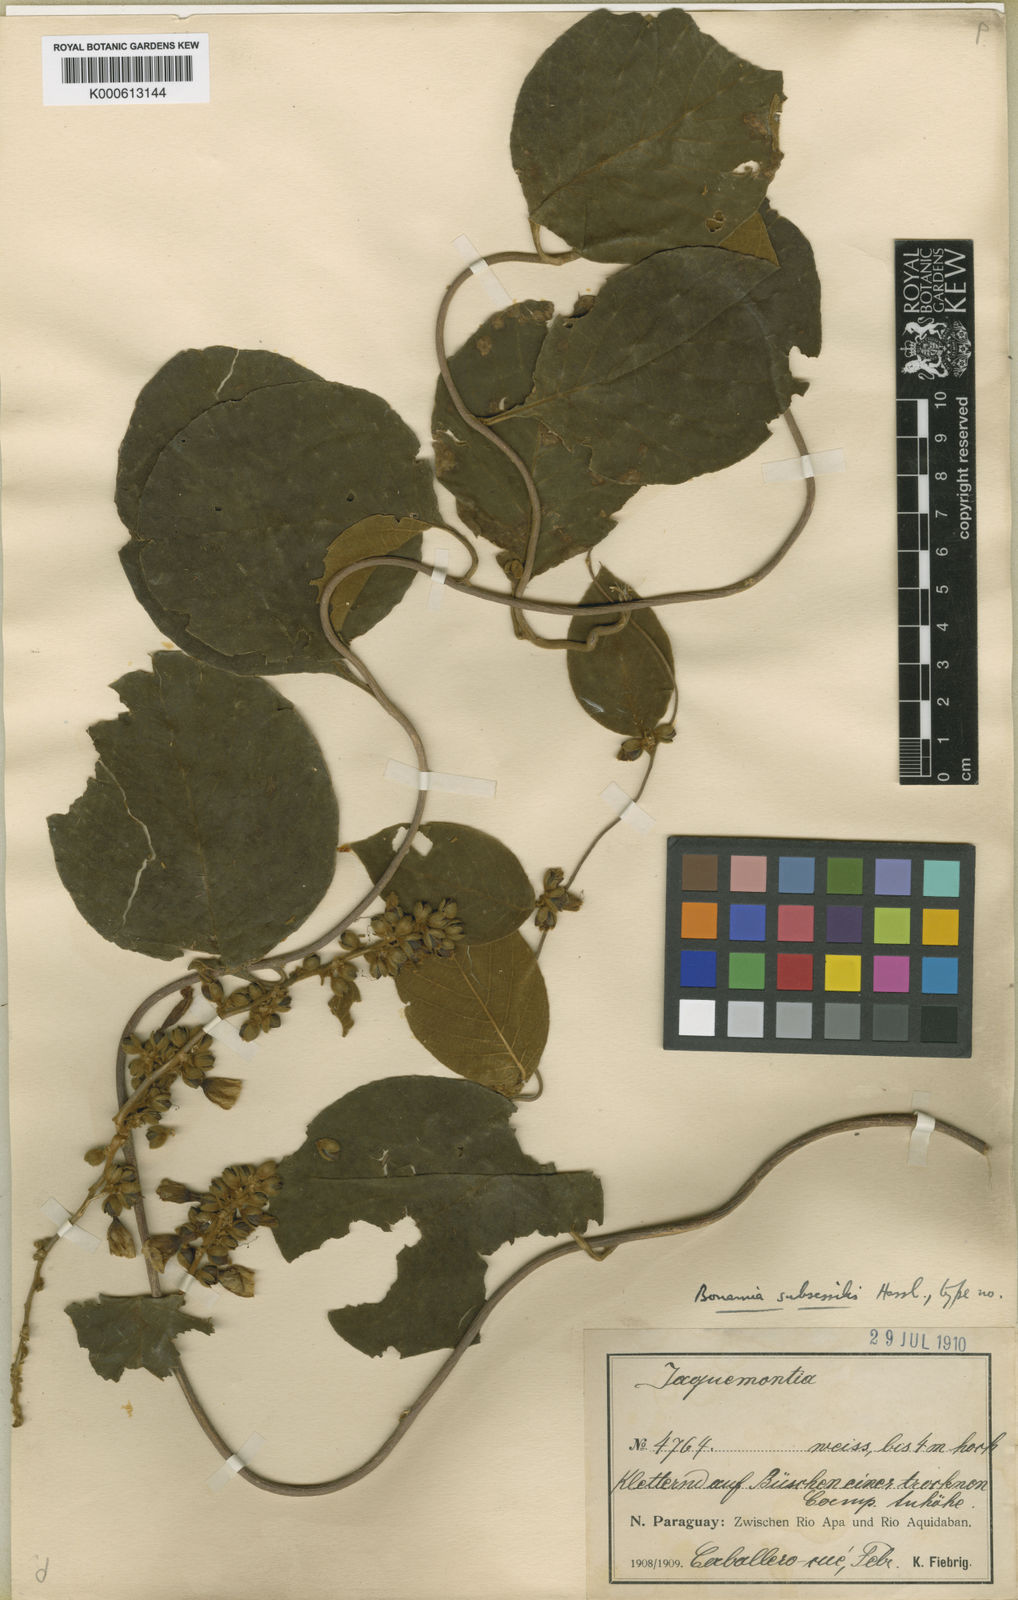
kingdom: Plantae
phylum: Tracheophyta
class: Magnoliopsida
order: Solanales
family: Convolvulaceae
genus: Bonamia
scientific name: Bonamia subsessilis
